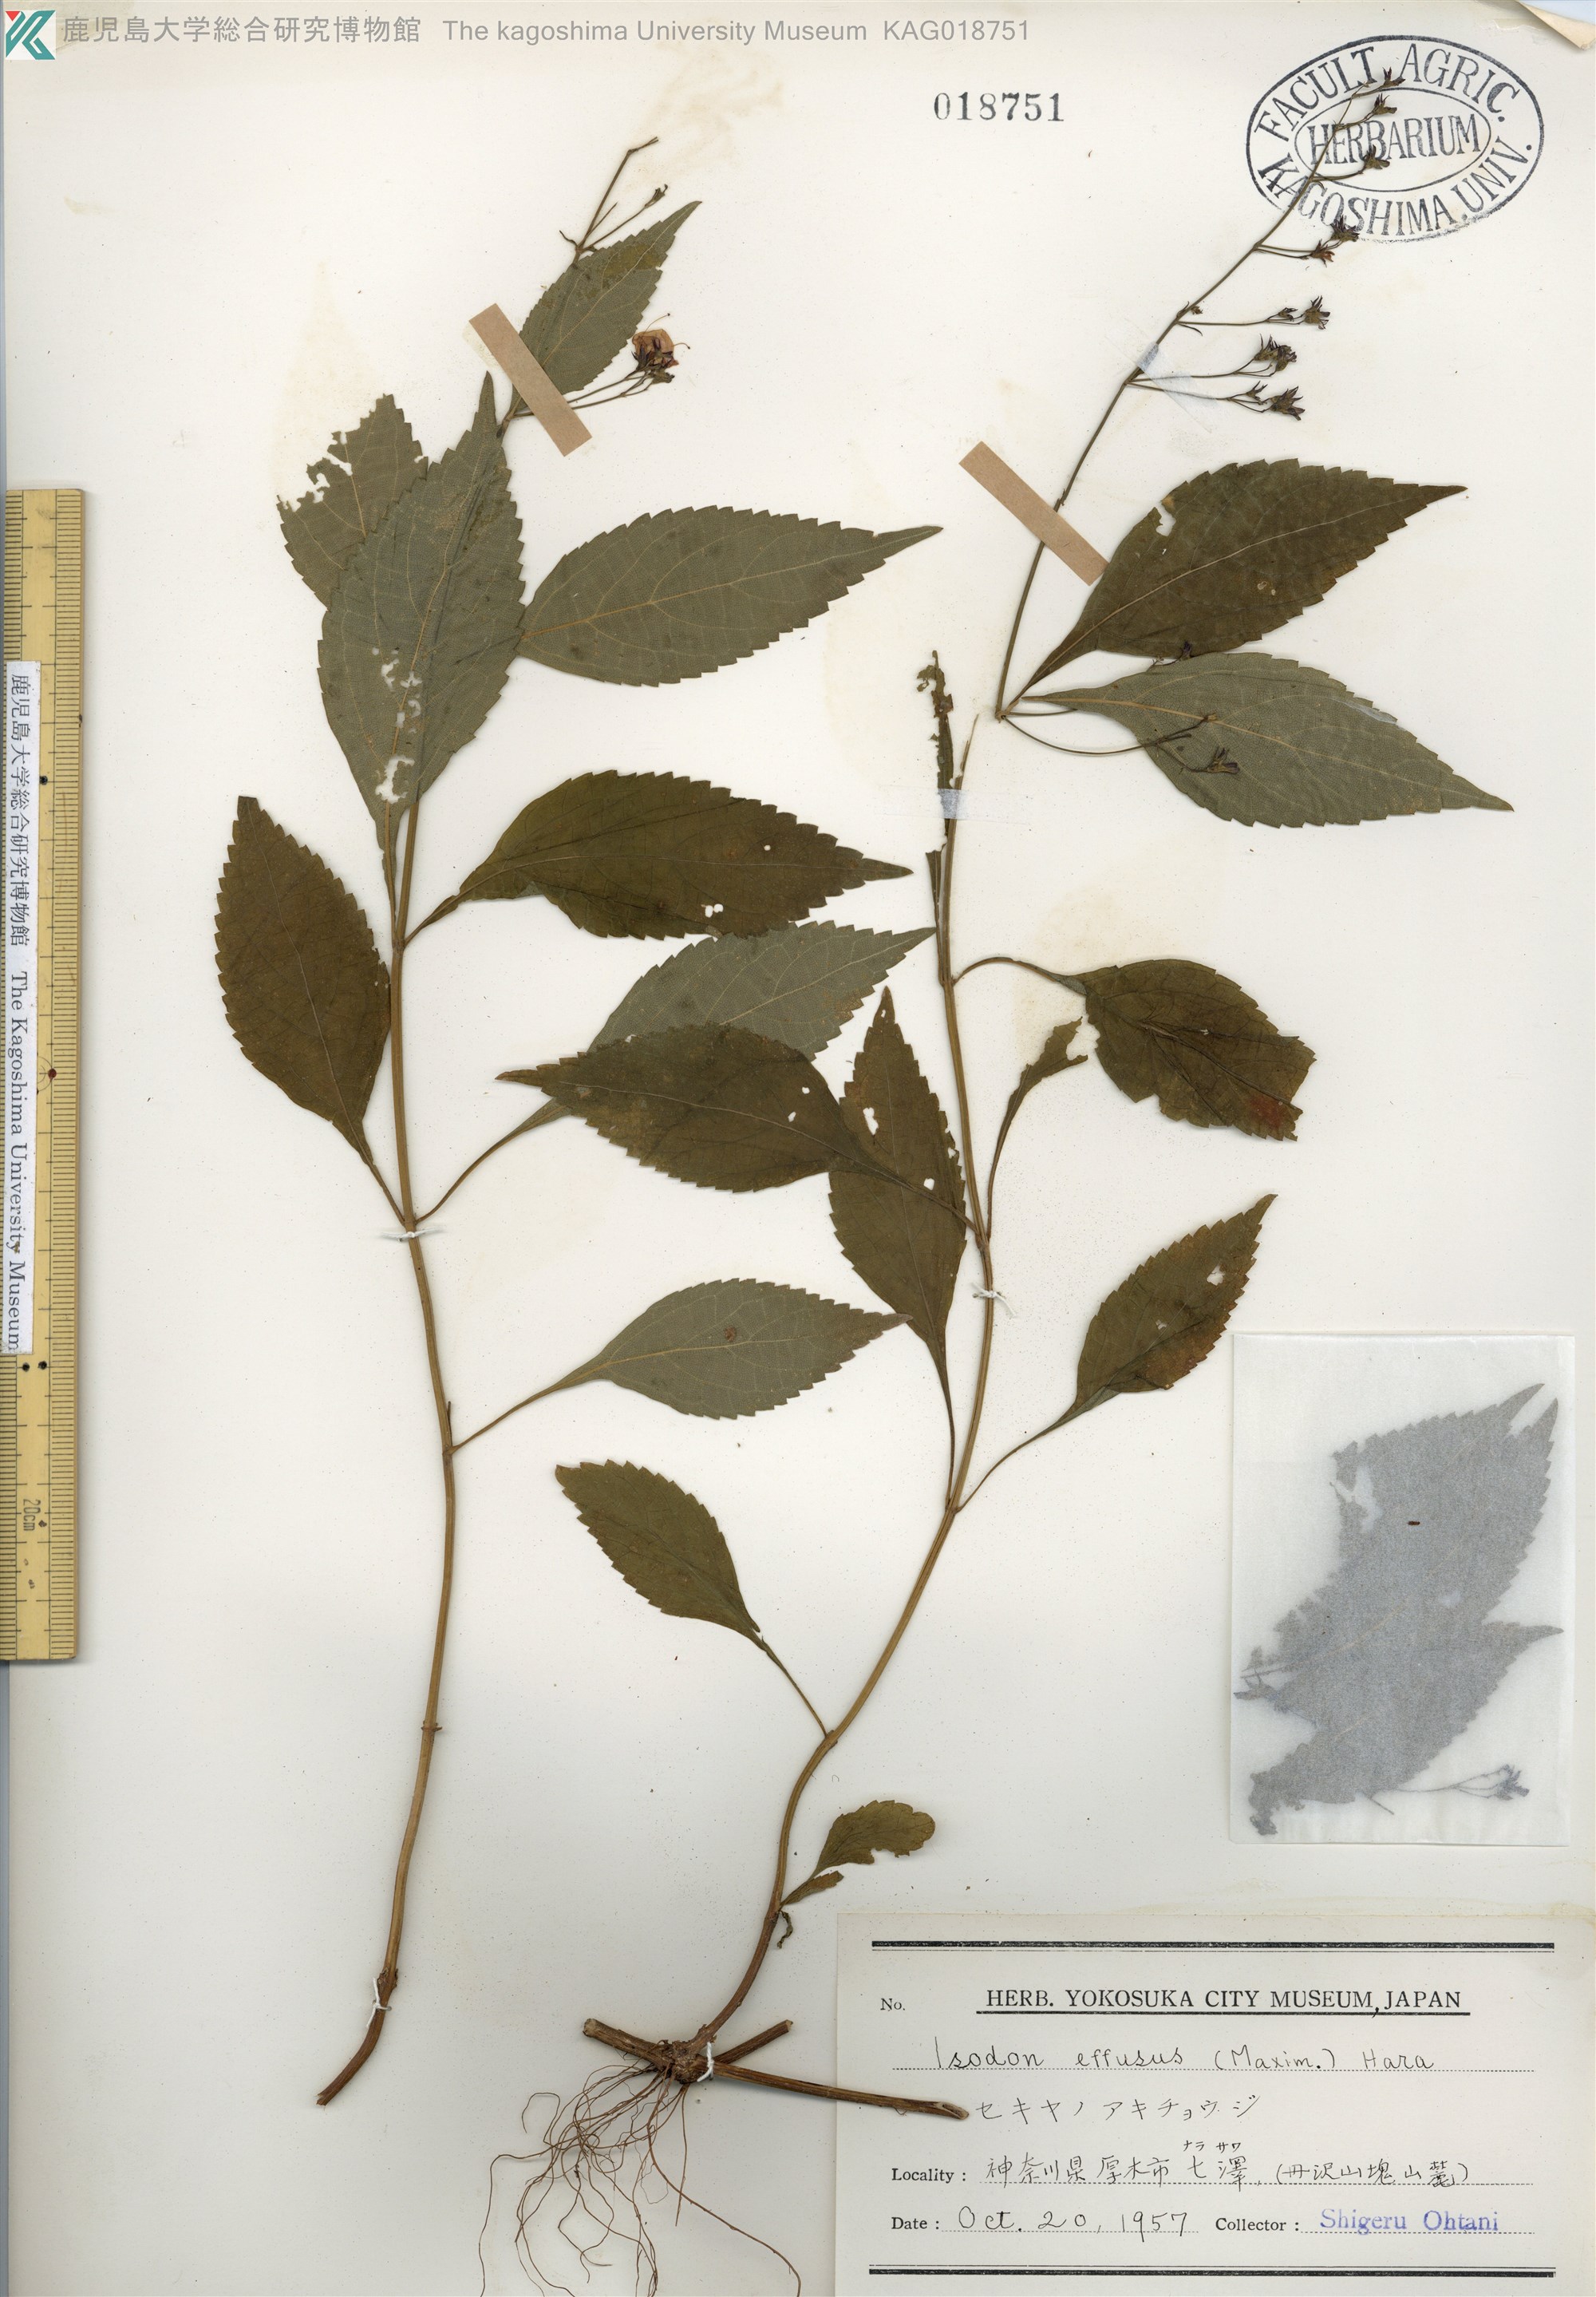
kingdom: Plantae
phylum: Tracheophyta
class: Magnoliopsida
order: Lamiales
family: Lamiaceae
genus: Isodon
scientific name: Isodon effusus
